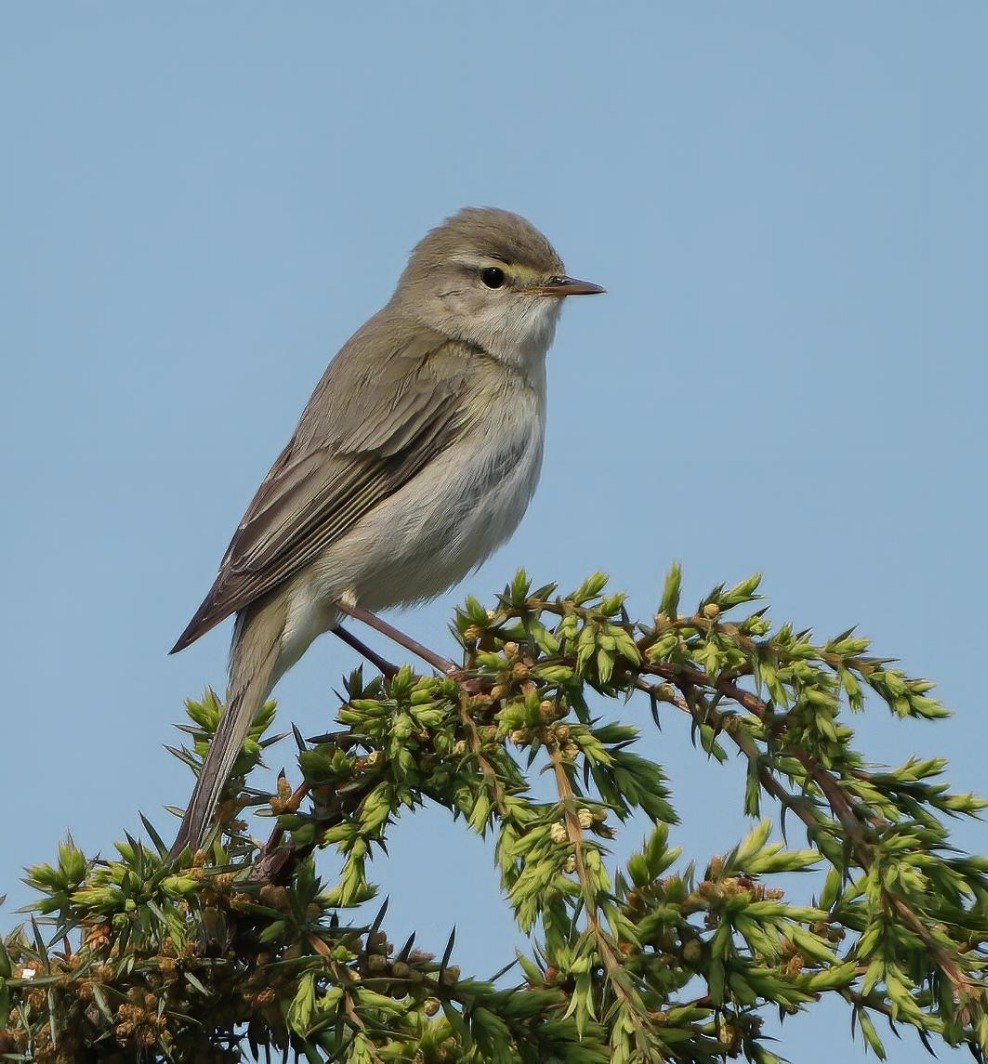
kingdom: Animalia
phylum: Chordata
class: Aves
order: Passeriformes
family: Phylloscopidae
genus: Phylloscopus
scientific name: Phylloscopus trochilus
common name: Løvsanger
